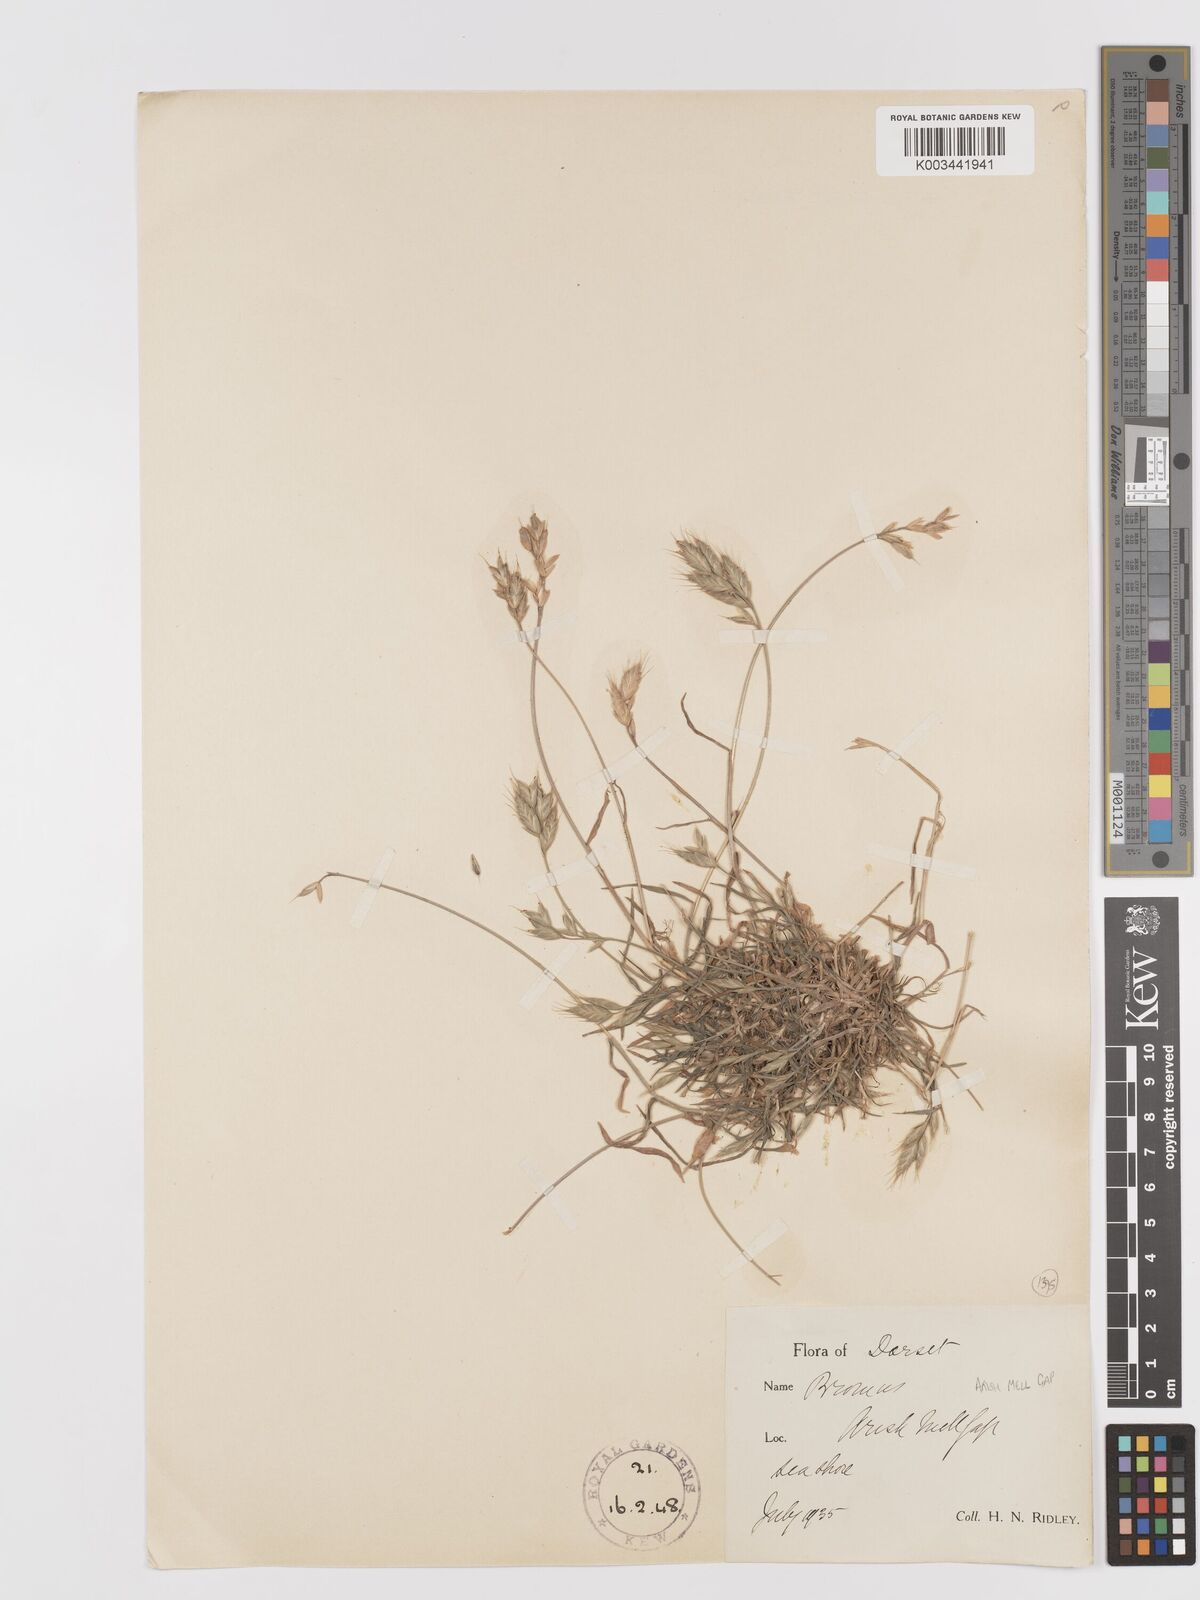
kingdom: Plantae
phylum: Tracheophyta
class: Liliopsida
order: Poales
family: Poaceae
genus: Bromus
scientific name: Bromus hordeaceus
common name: Soft brome
